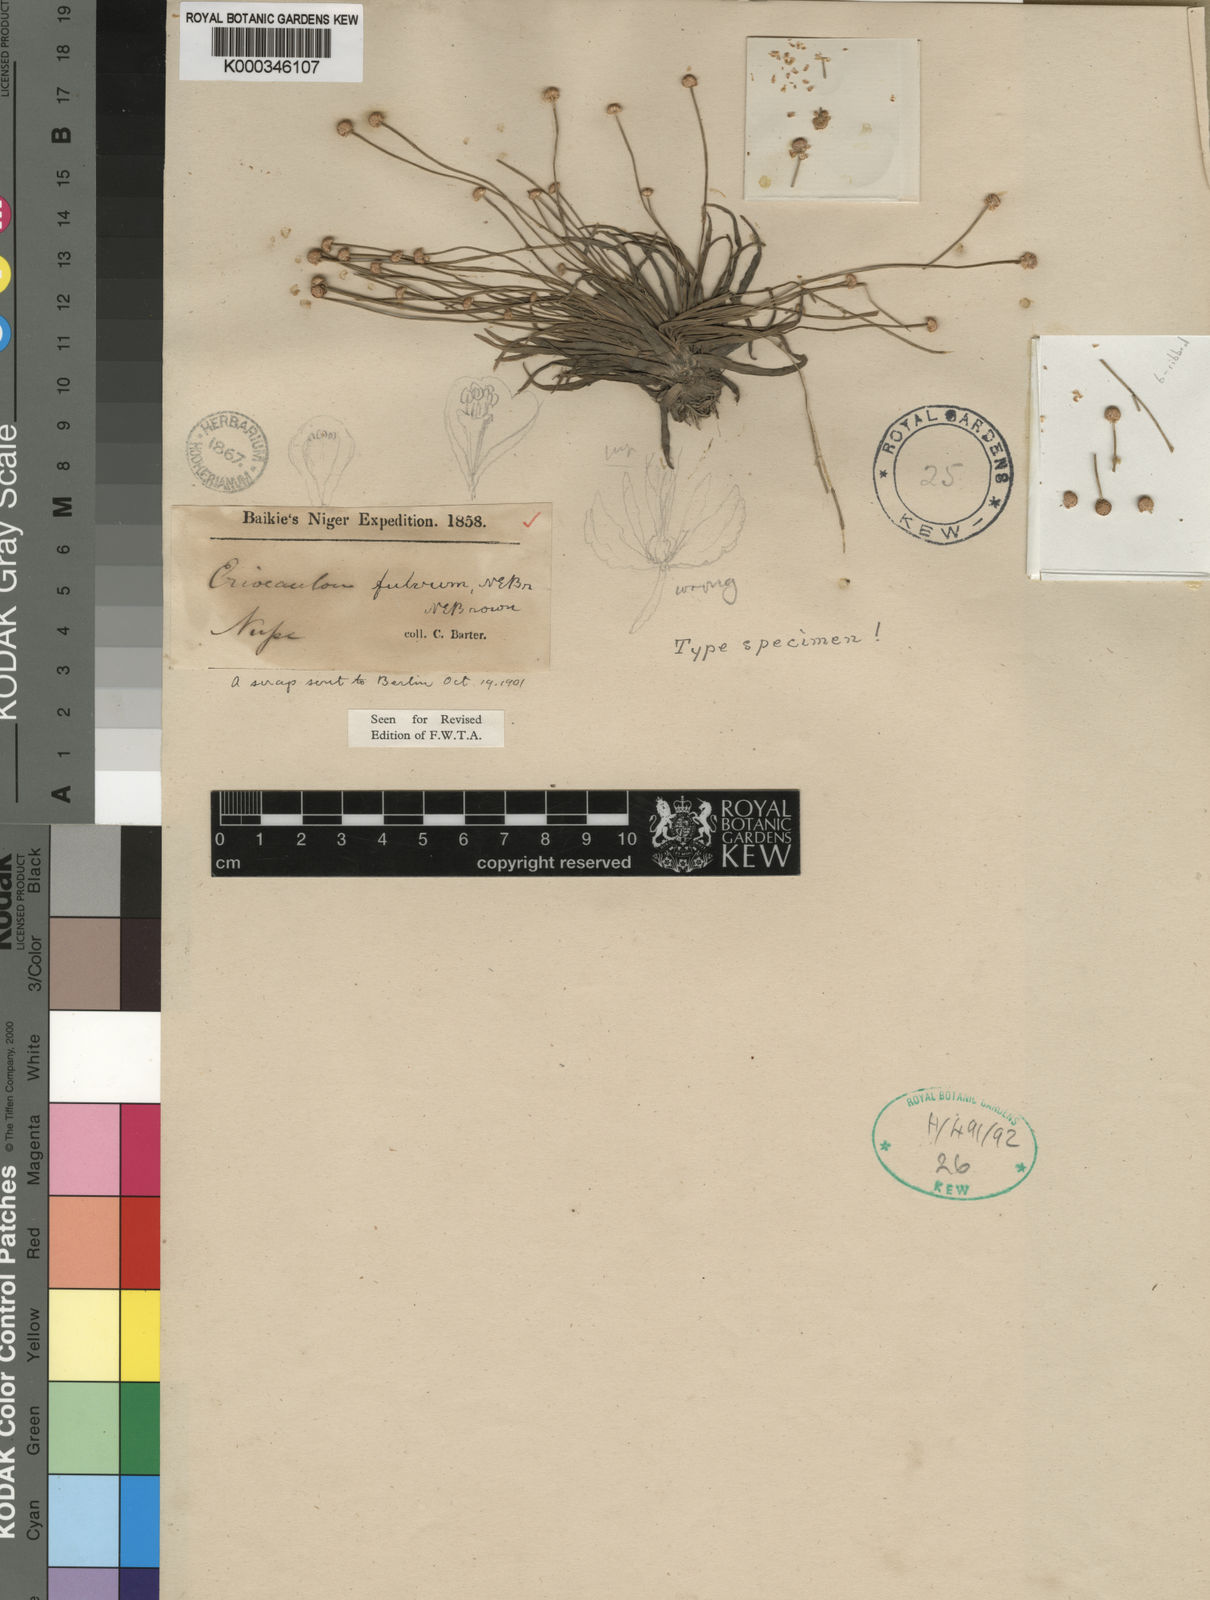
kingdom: Plantae
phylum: Tracheophyta
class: Liliopsida
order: Poales
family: Eriocaulaceae
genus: Eriocaulon
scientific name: Eriocaulon fulvum
